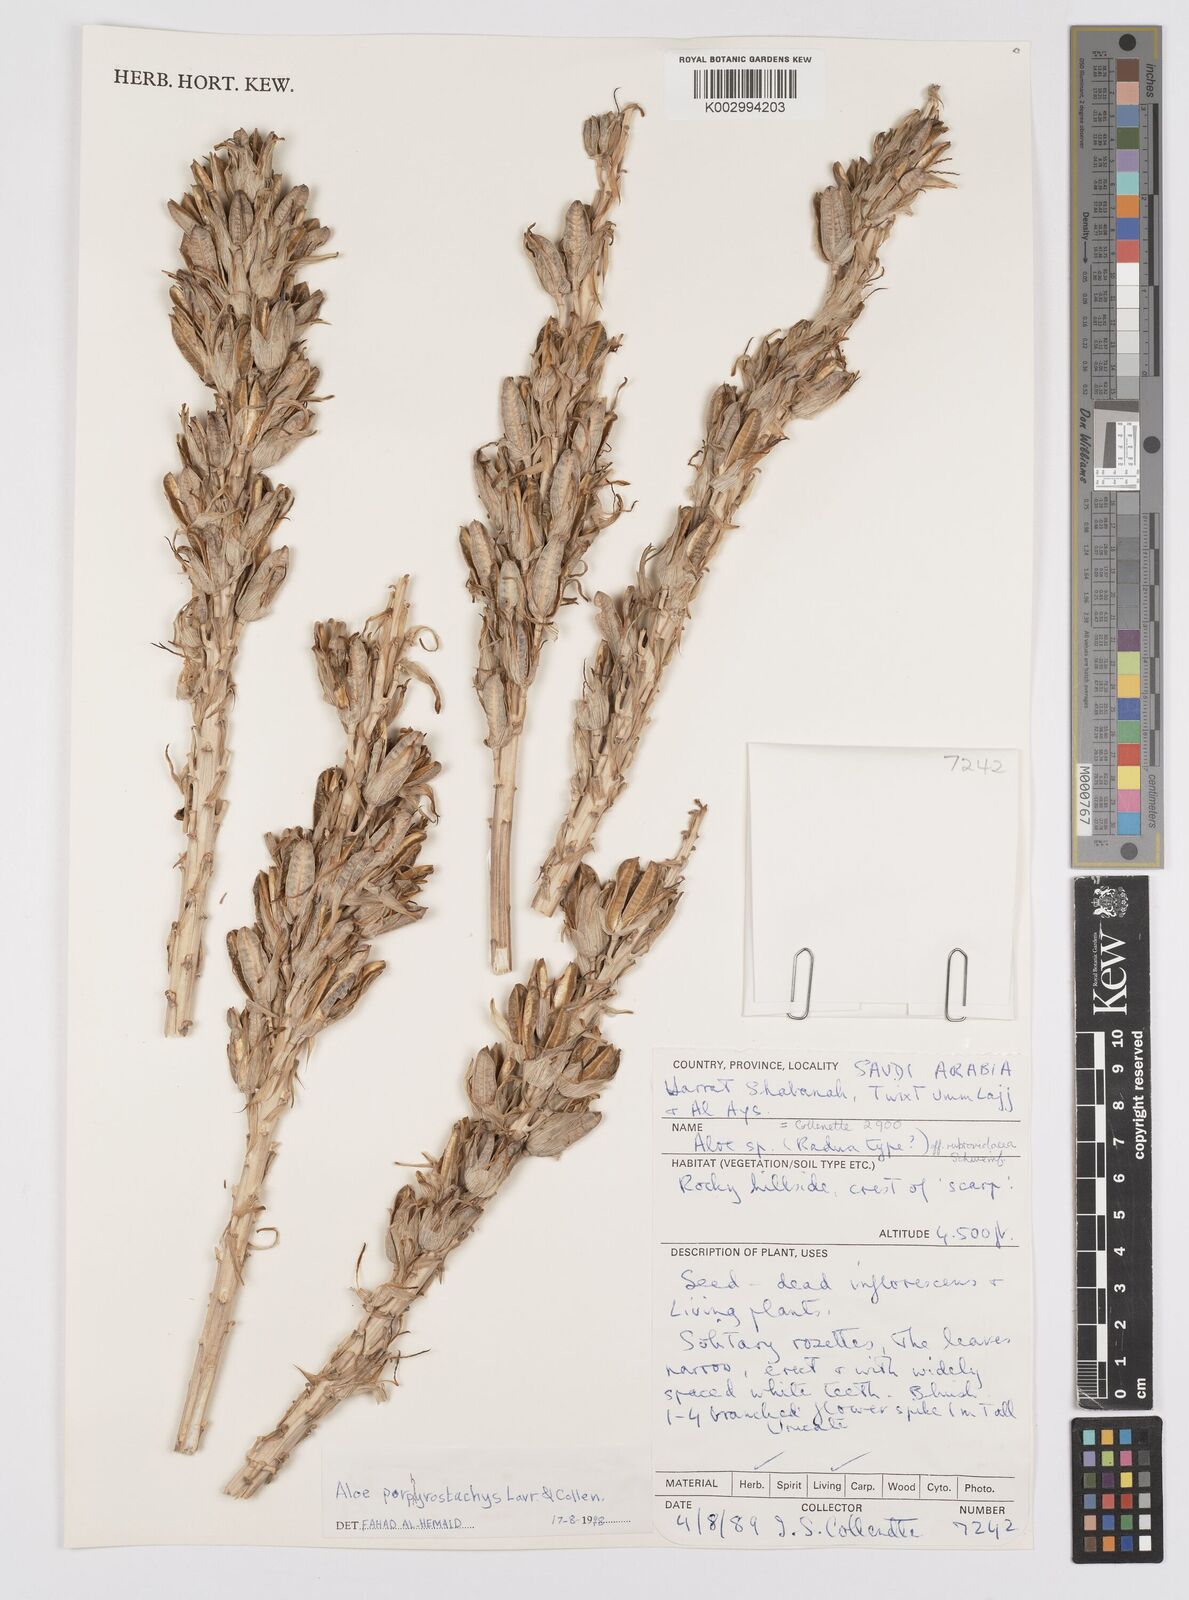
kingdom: Plantae
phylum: Tracheophyta
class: Liliopsida
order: Asparagales
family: Asphodelaceae
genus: Aloe
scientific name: Aloe porphyrostachys
